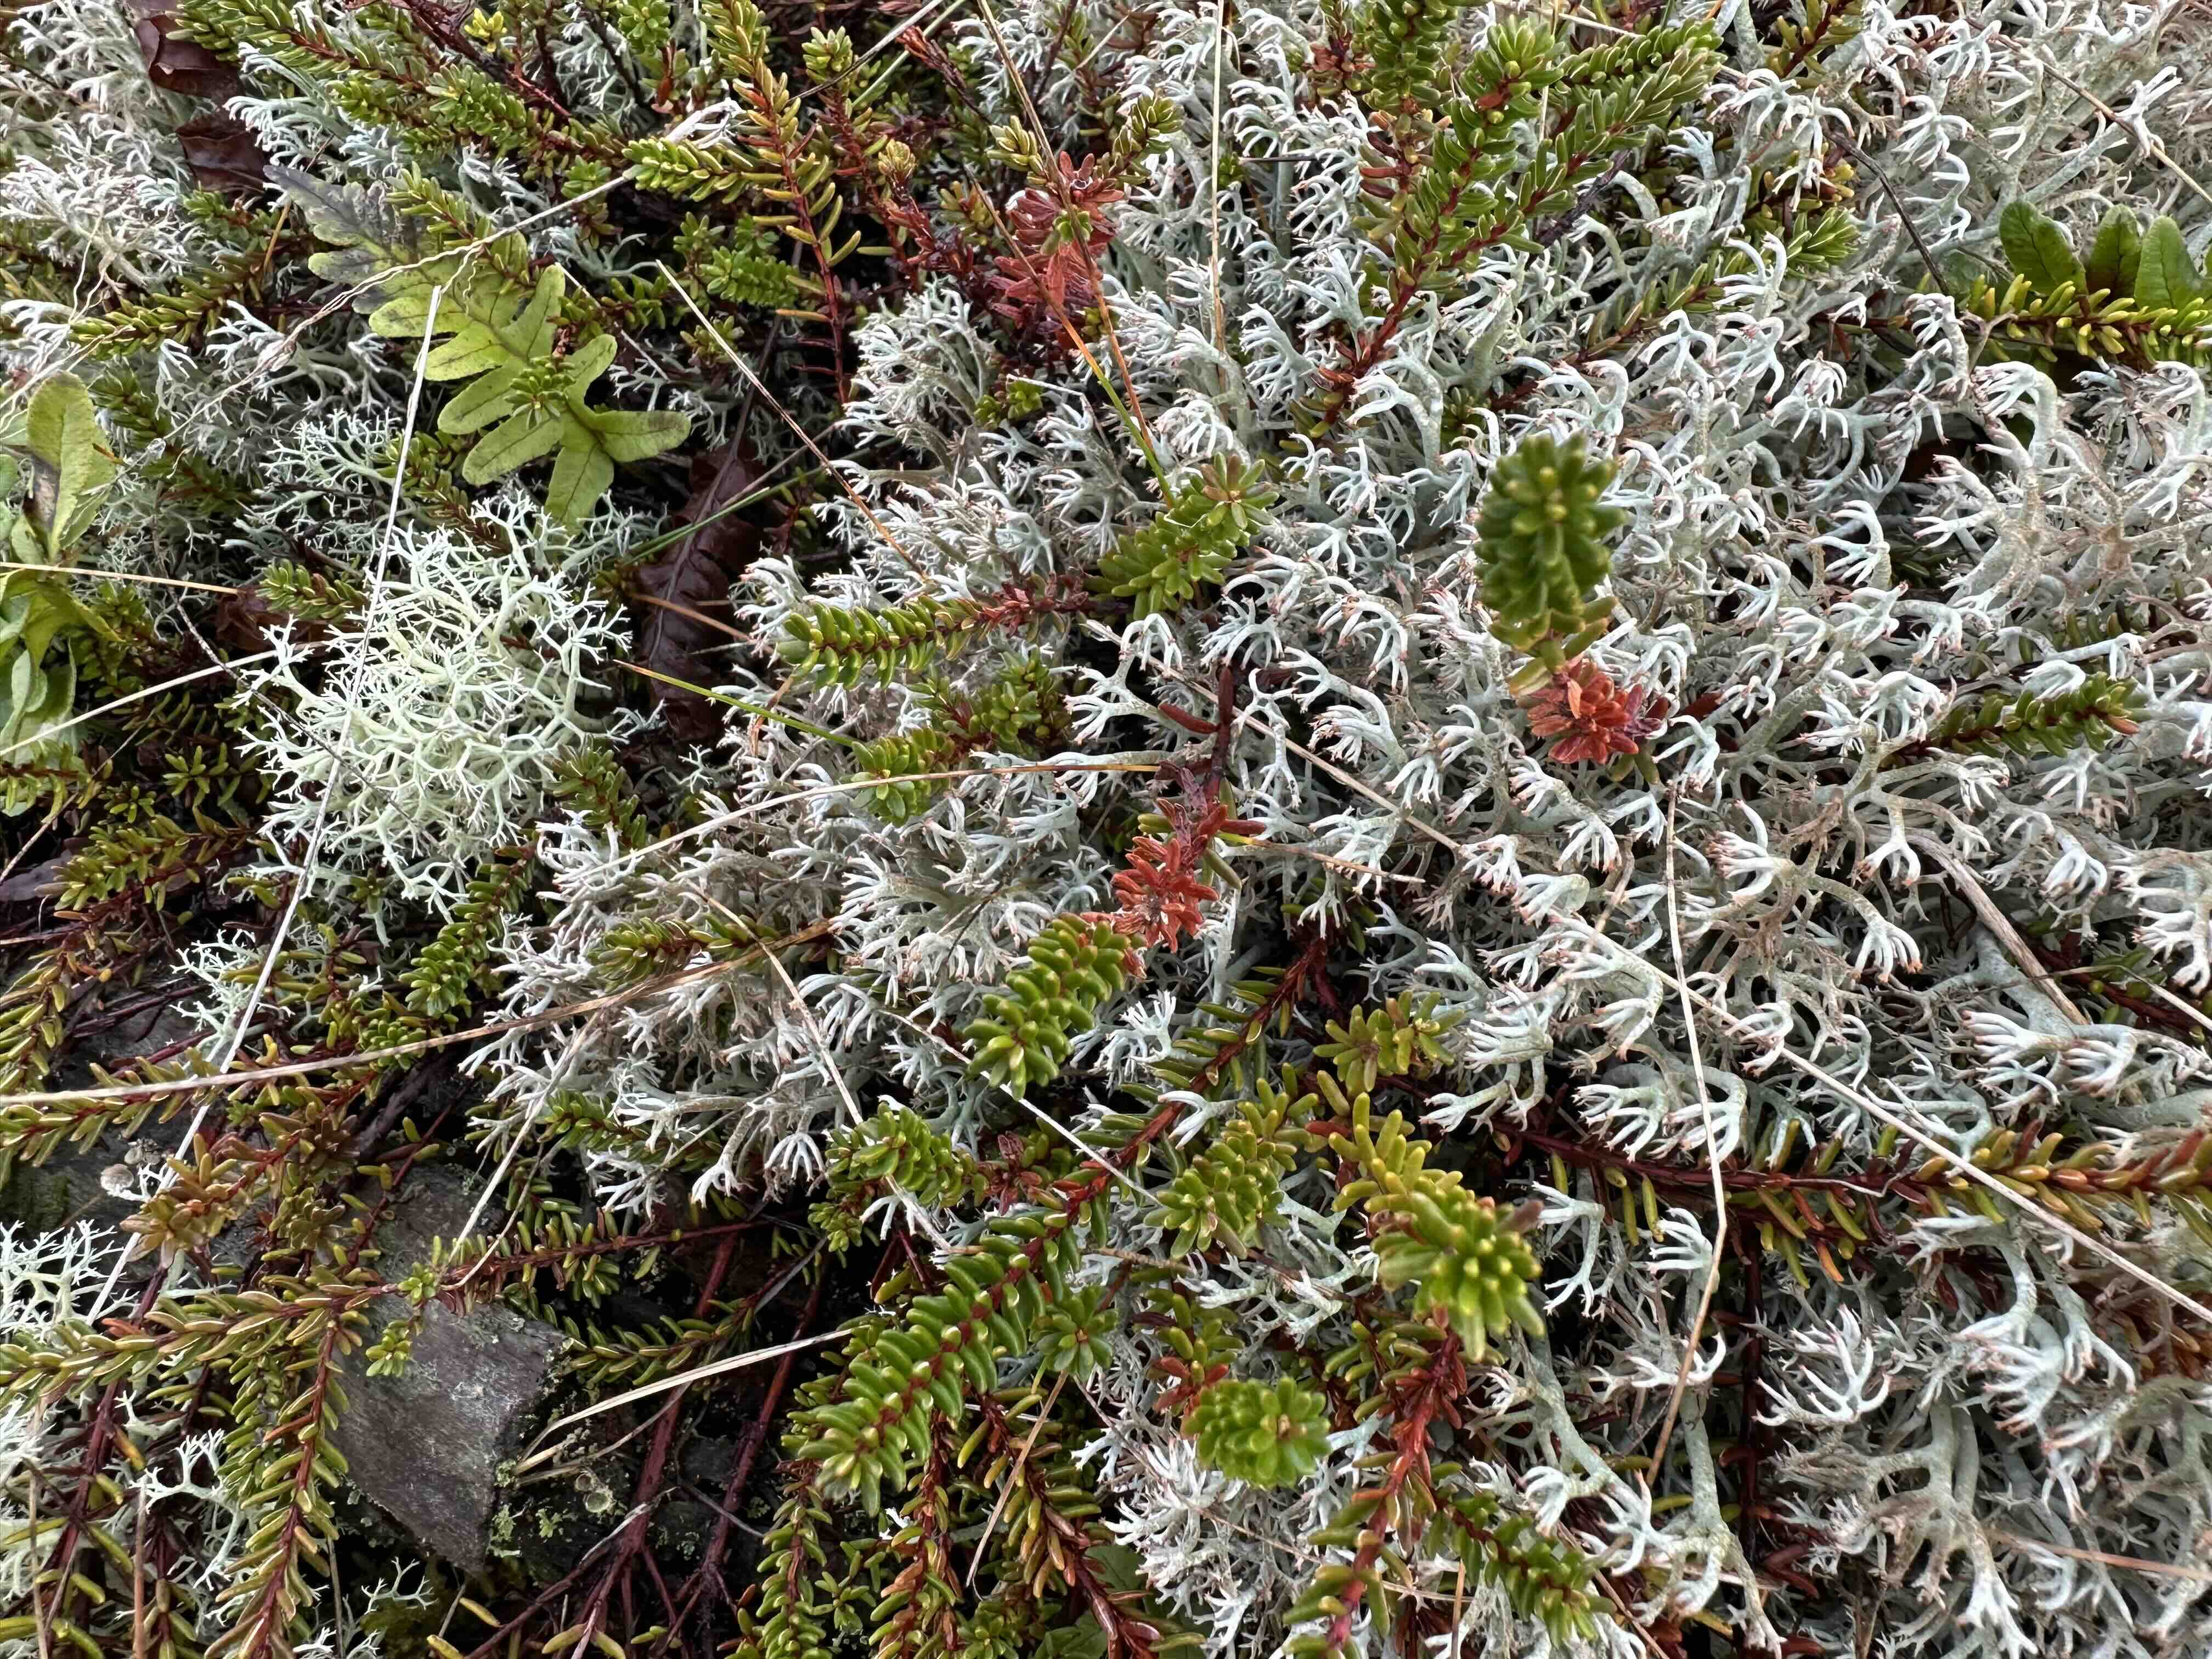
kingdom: Fungi
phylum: Ascomycota
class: Lecanoromycetes
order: Lecanorales
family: Cladoniaceae
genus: Cladonia
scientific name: Cladonia rangiferina
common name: askegrå rensdyrlav
